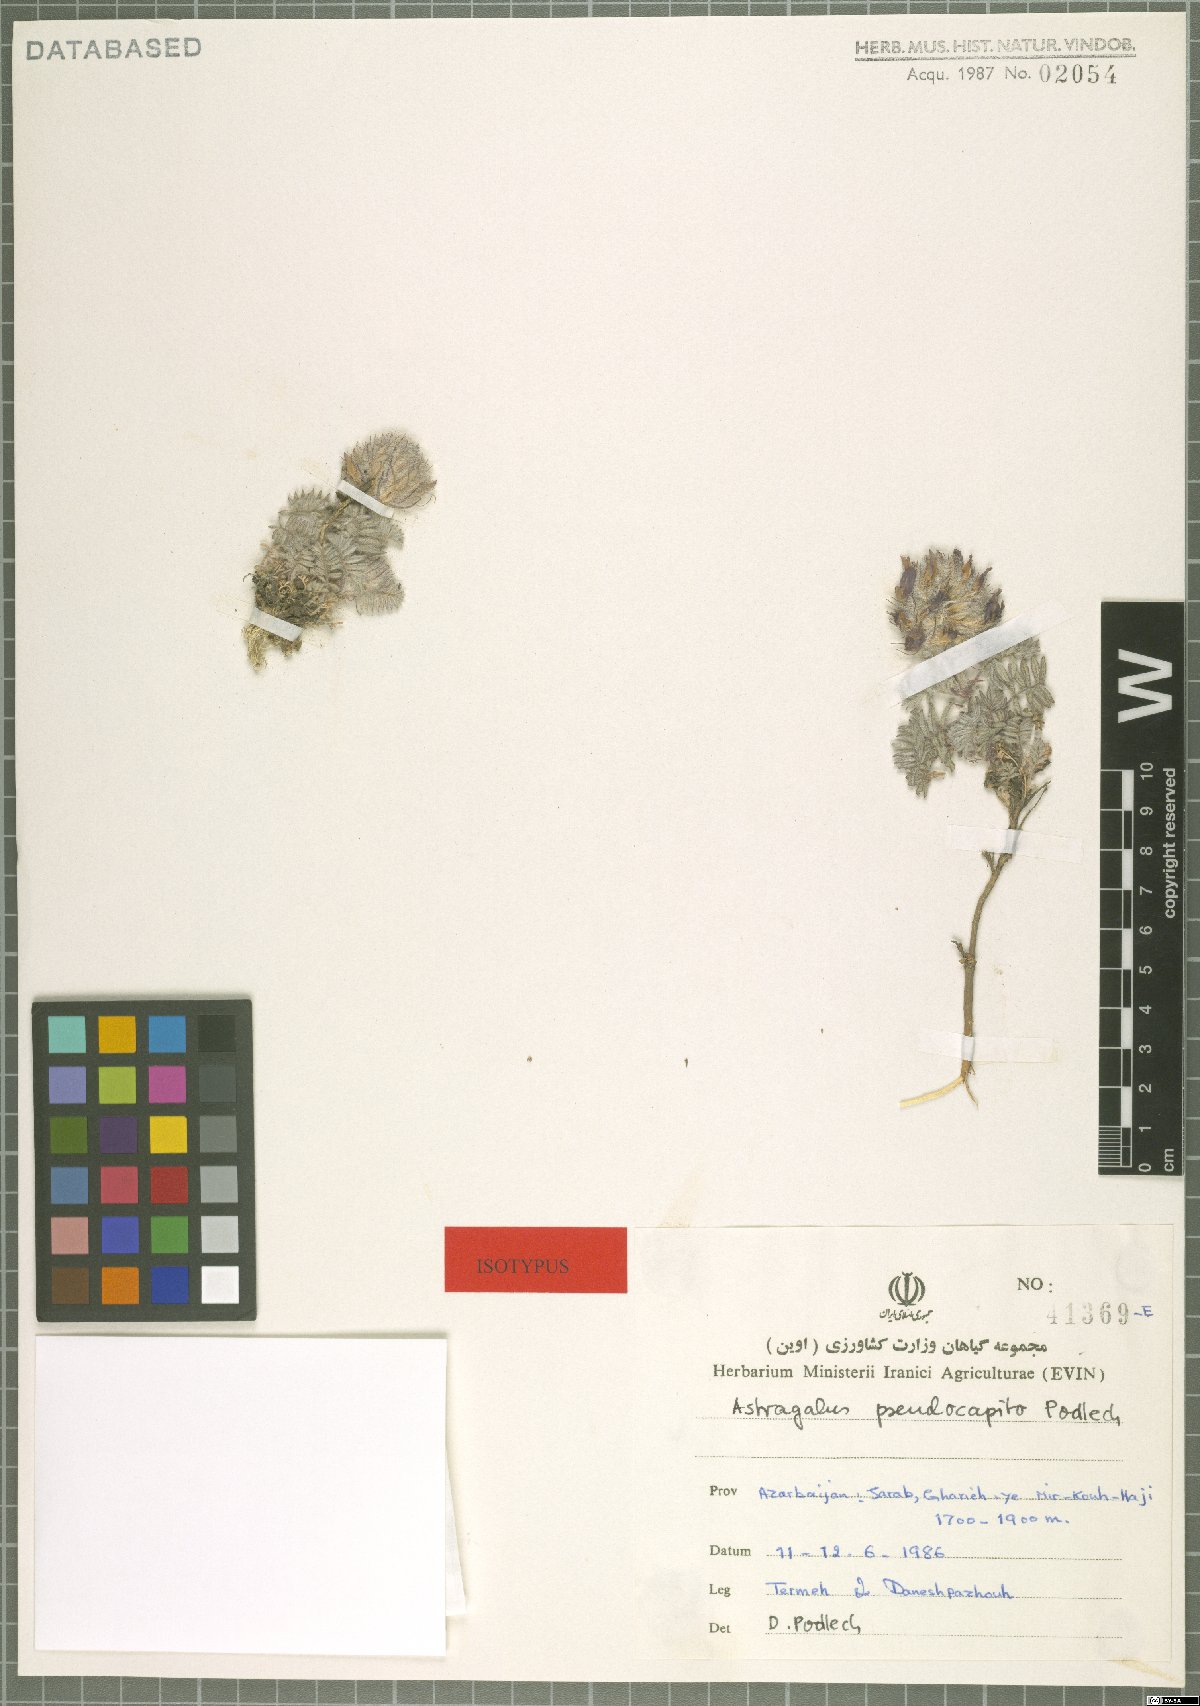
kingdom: Plantae
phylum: Tracheophyta
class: Magnoliopsida
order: Fabales
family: Fabaceae
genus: Astragalus
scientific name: Astragalus pseudocapito
